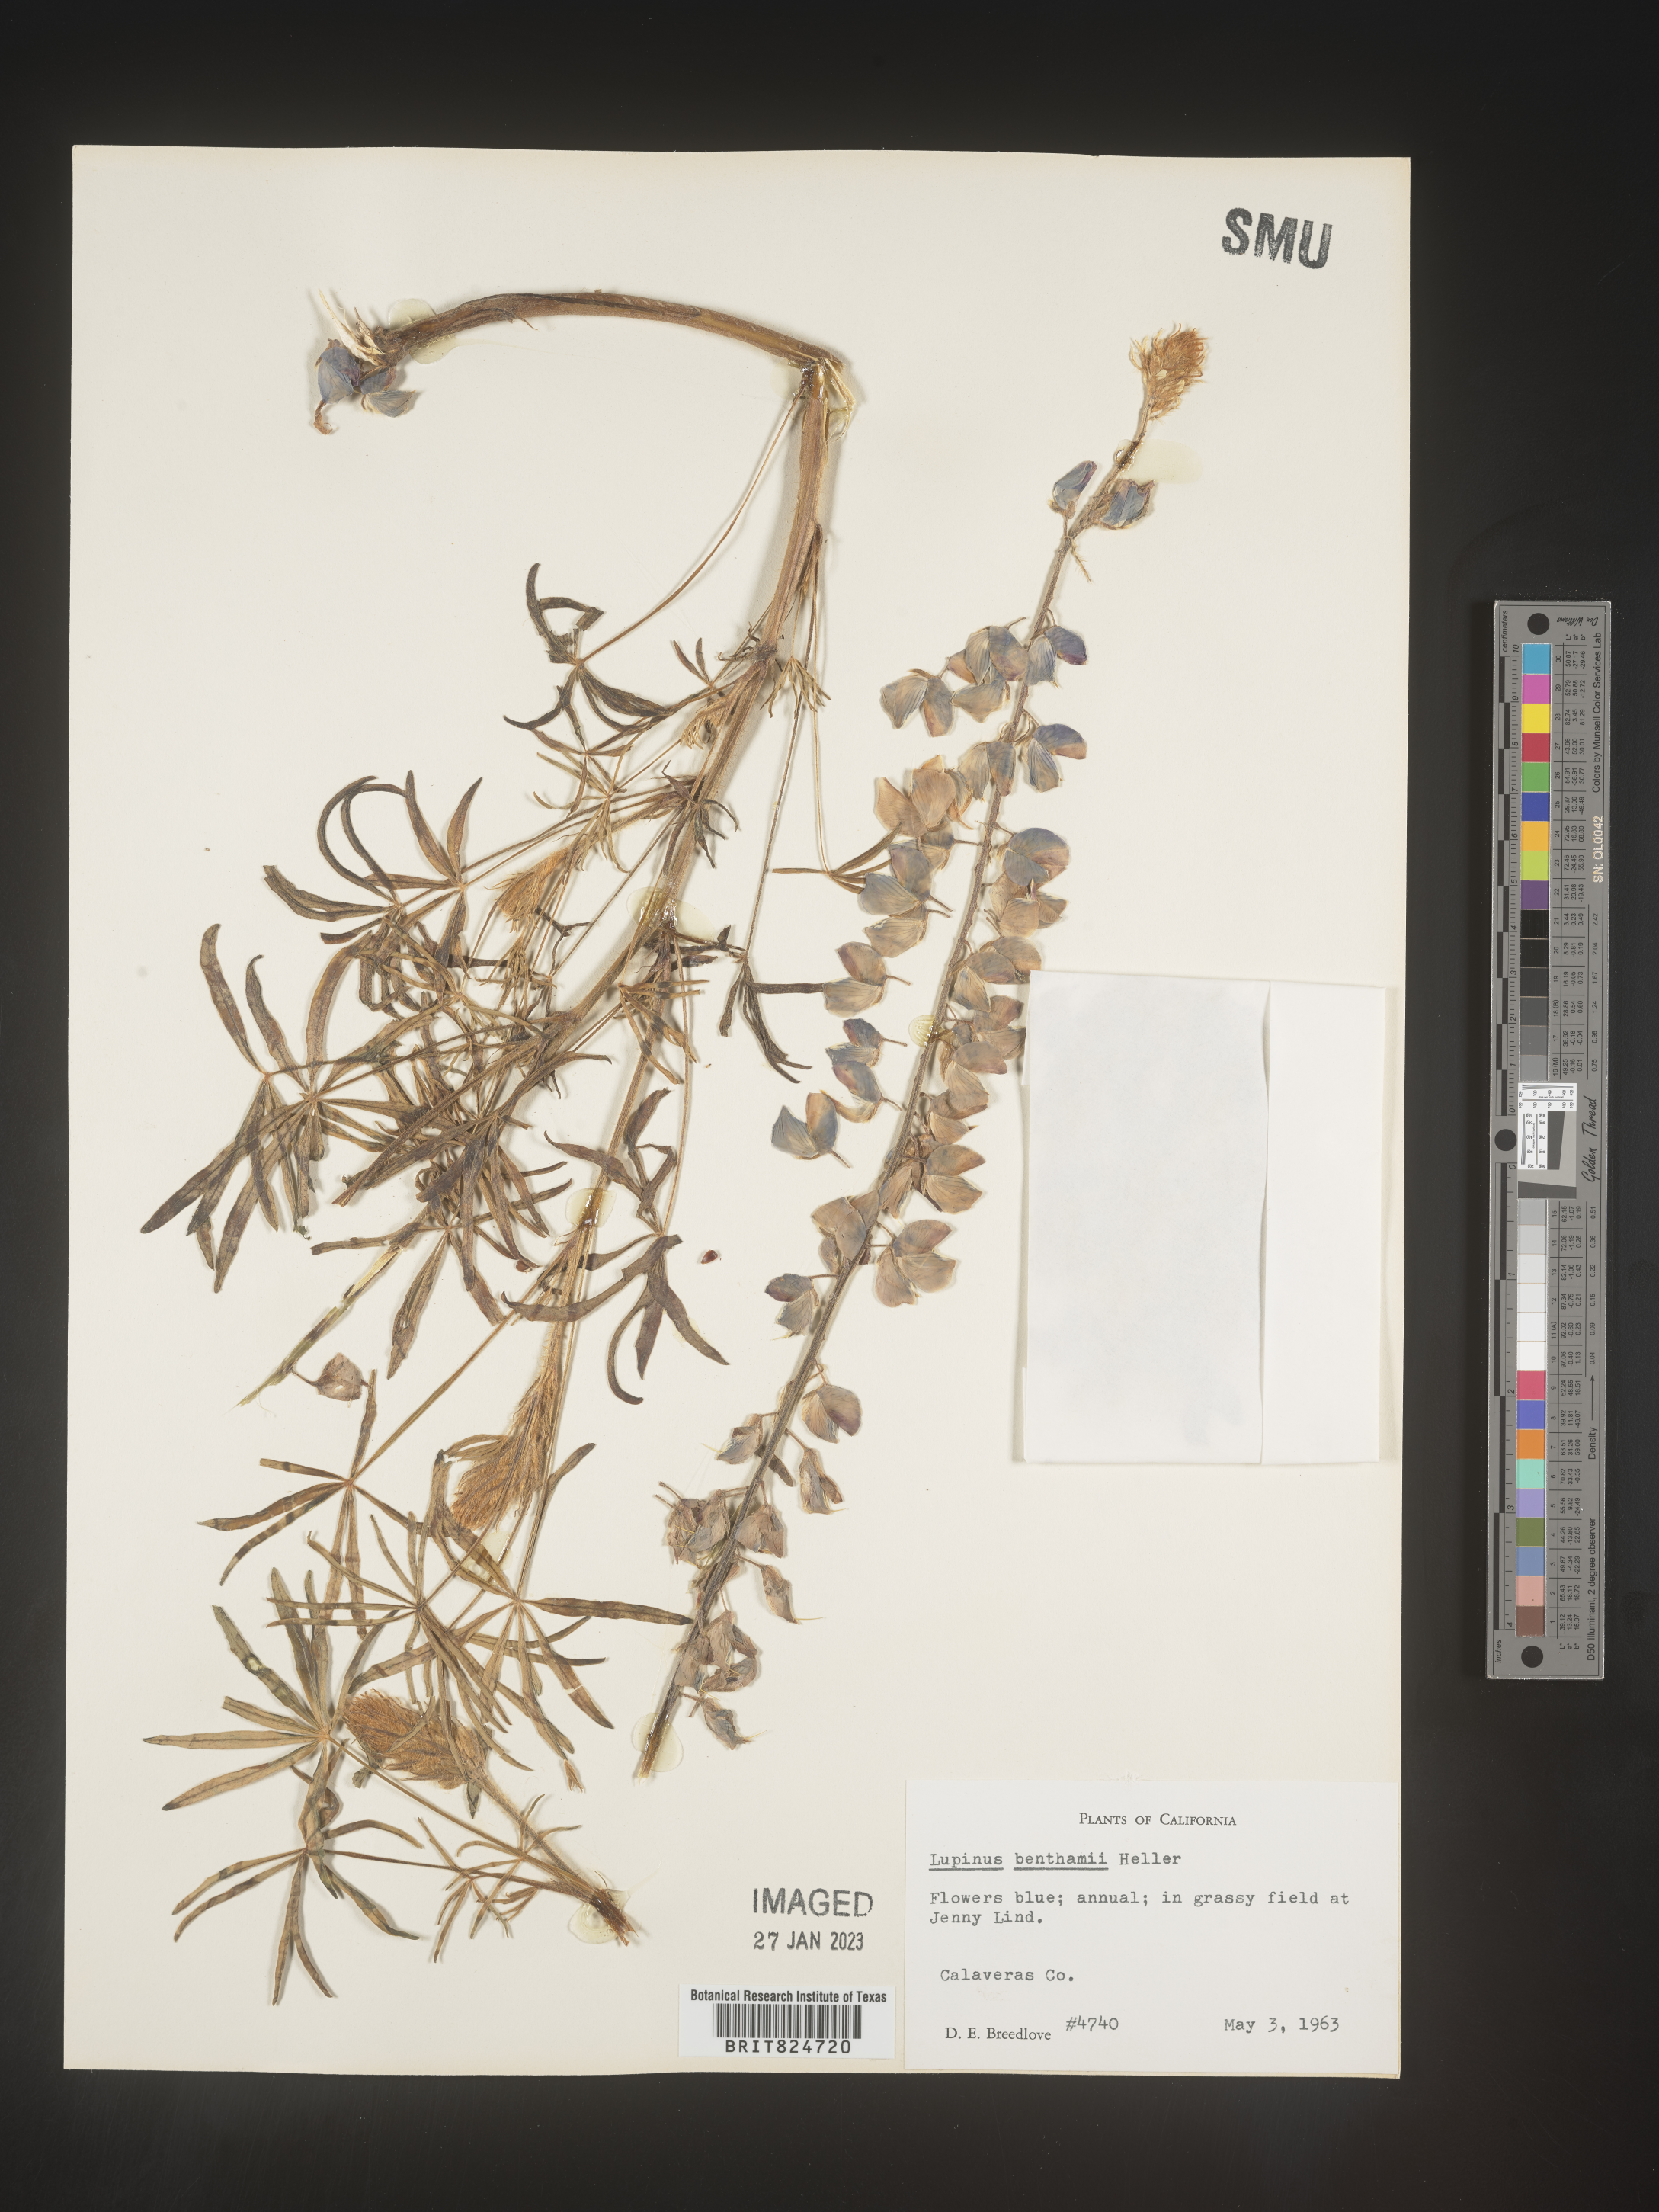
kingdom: Plantae
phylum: Tracheophyta
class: Magnoliopsida
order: Fabales
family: Fabaceae
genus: Lupinus
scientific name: Lupinus
